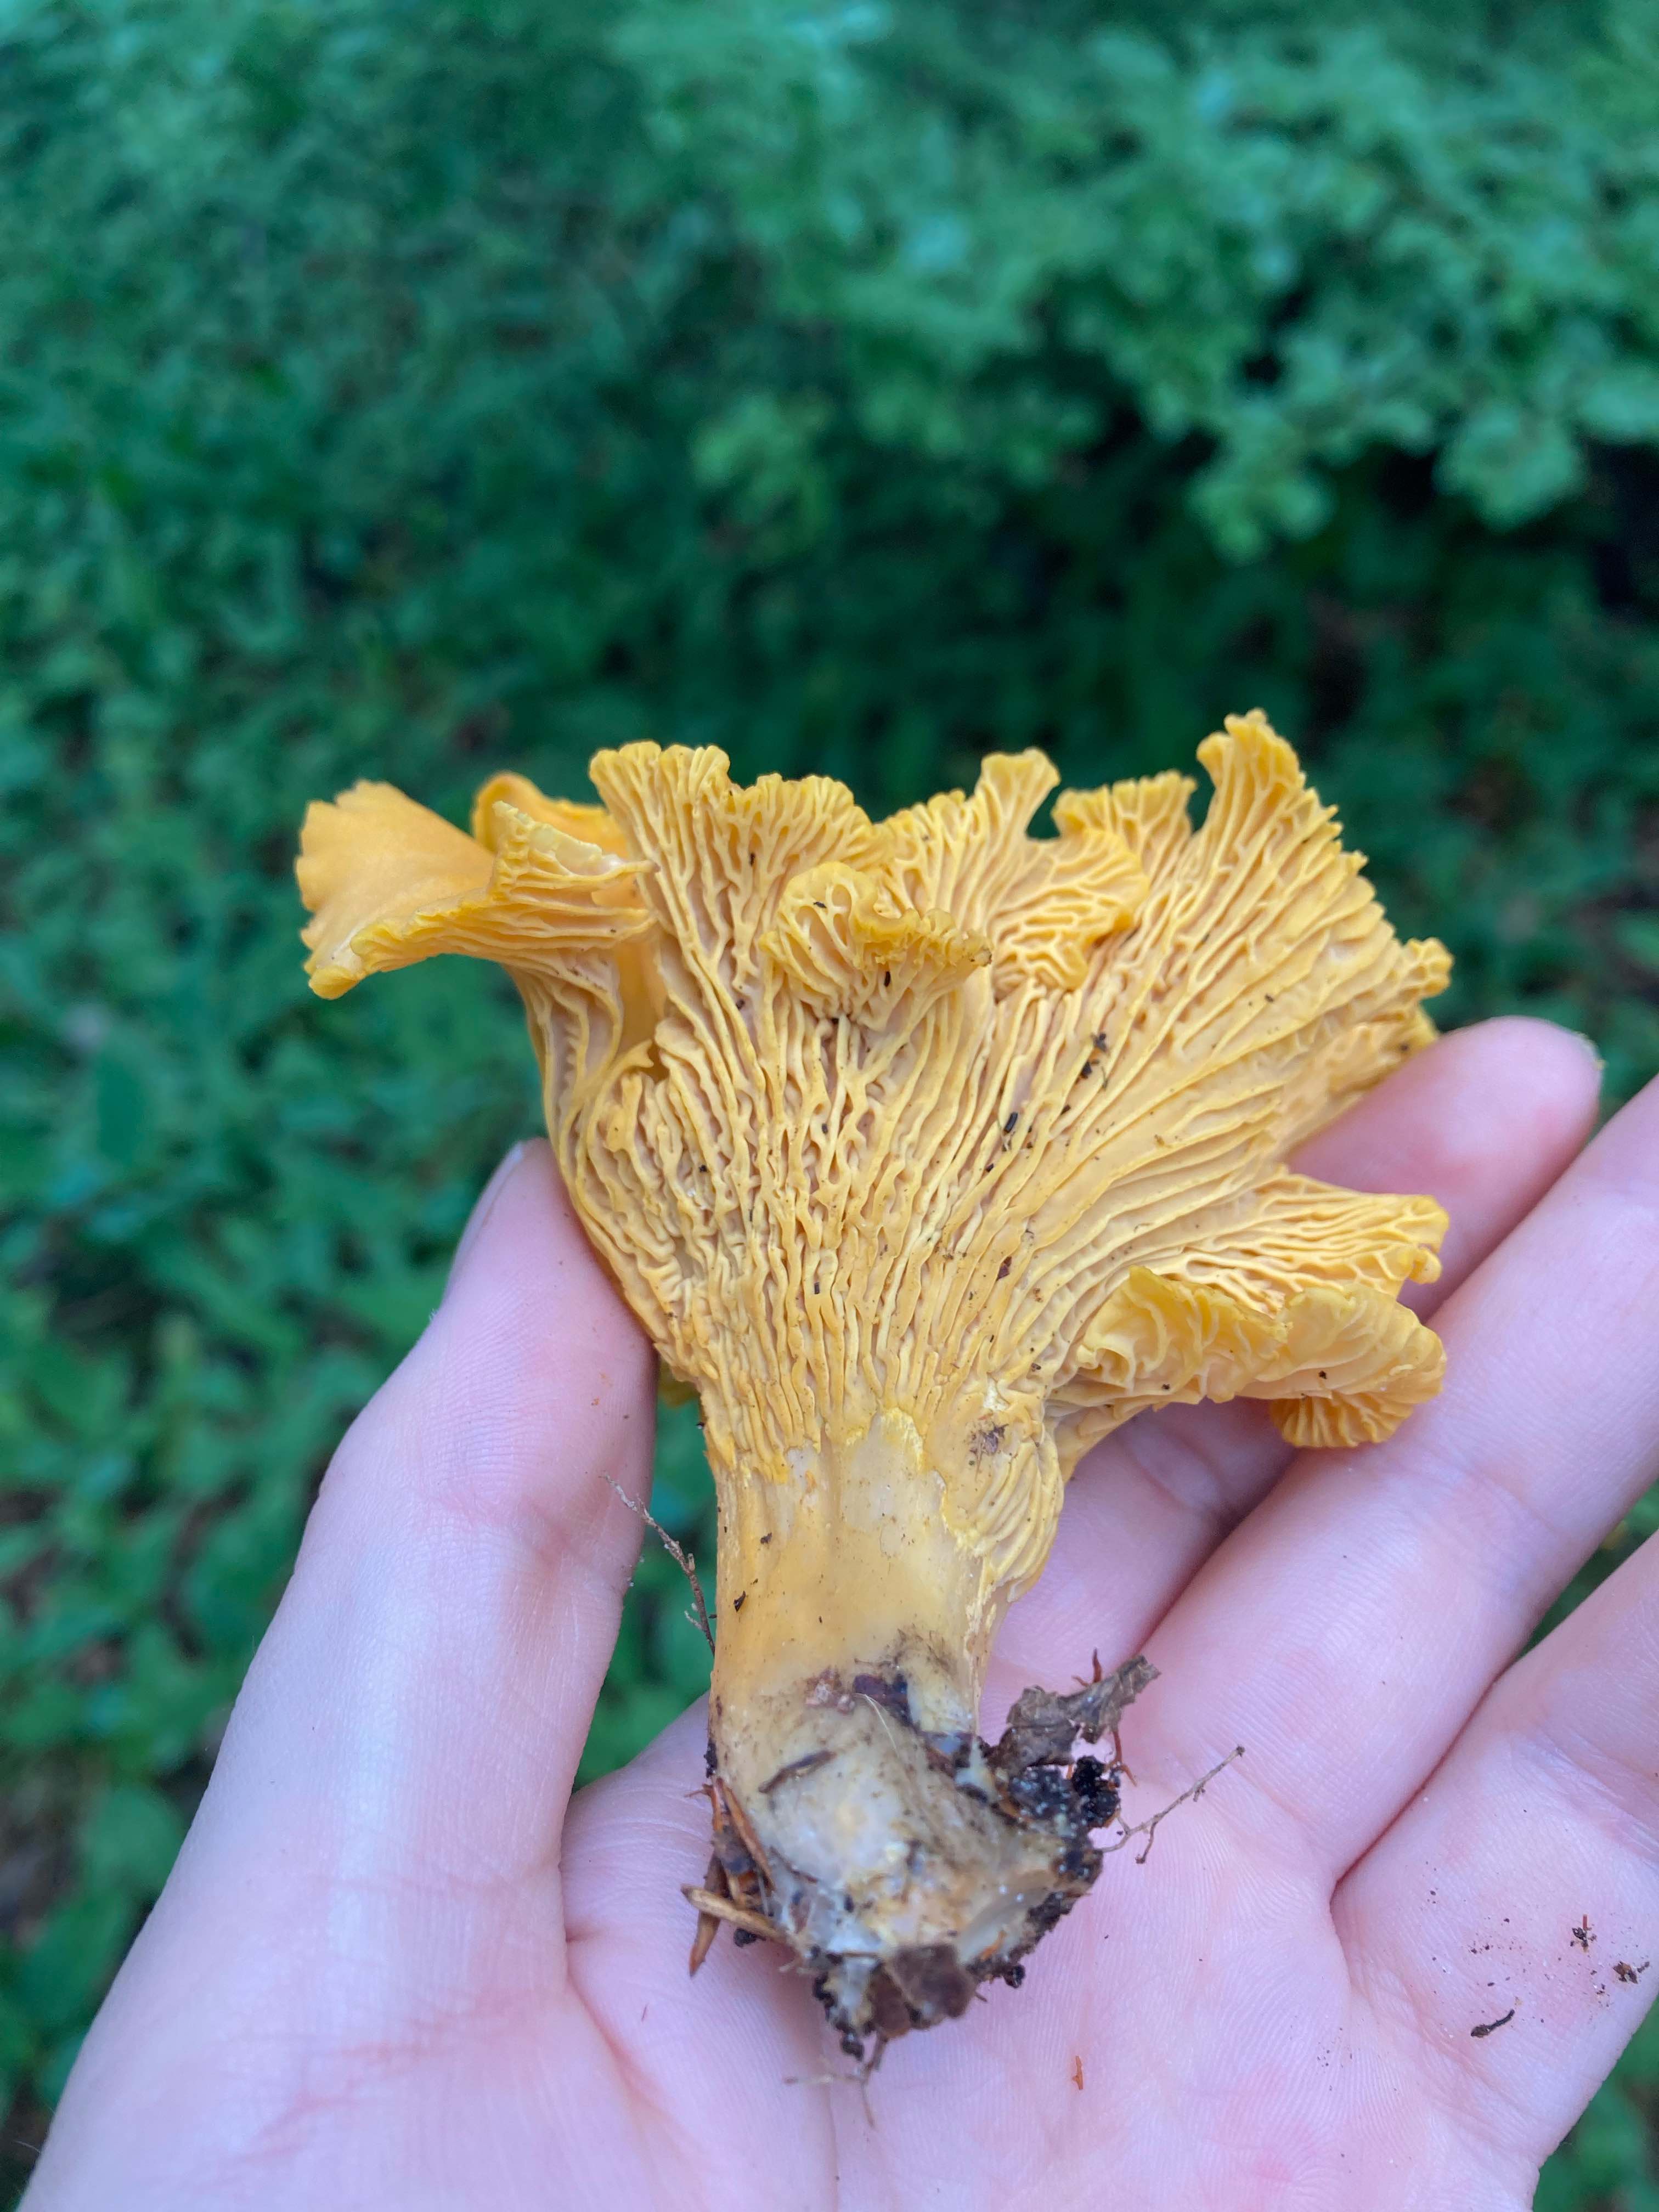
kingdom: Fungi
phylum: Basidiomycota
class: Agaricomycetes
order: Cantharellales
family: Hydnaceae
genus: Cantharellus
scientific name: Cantharellus cibarius
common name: almindelig kantarel
